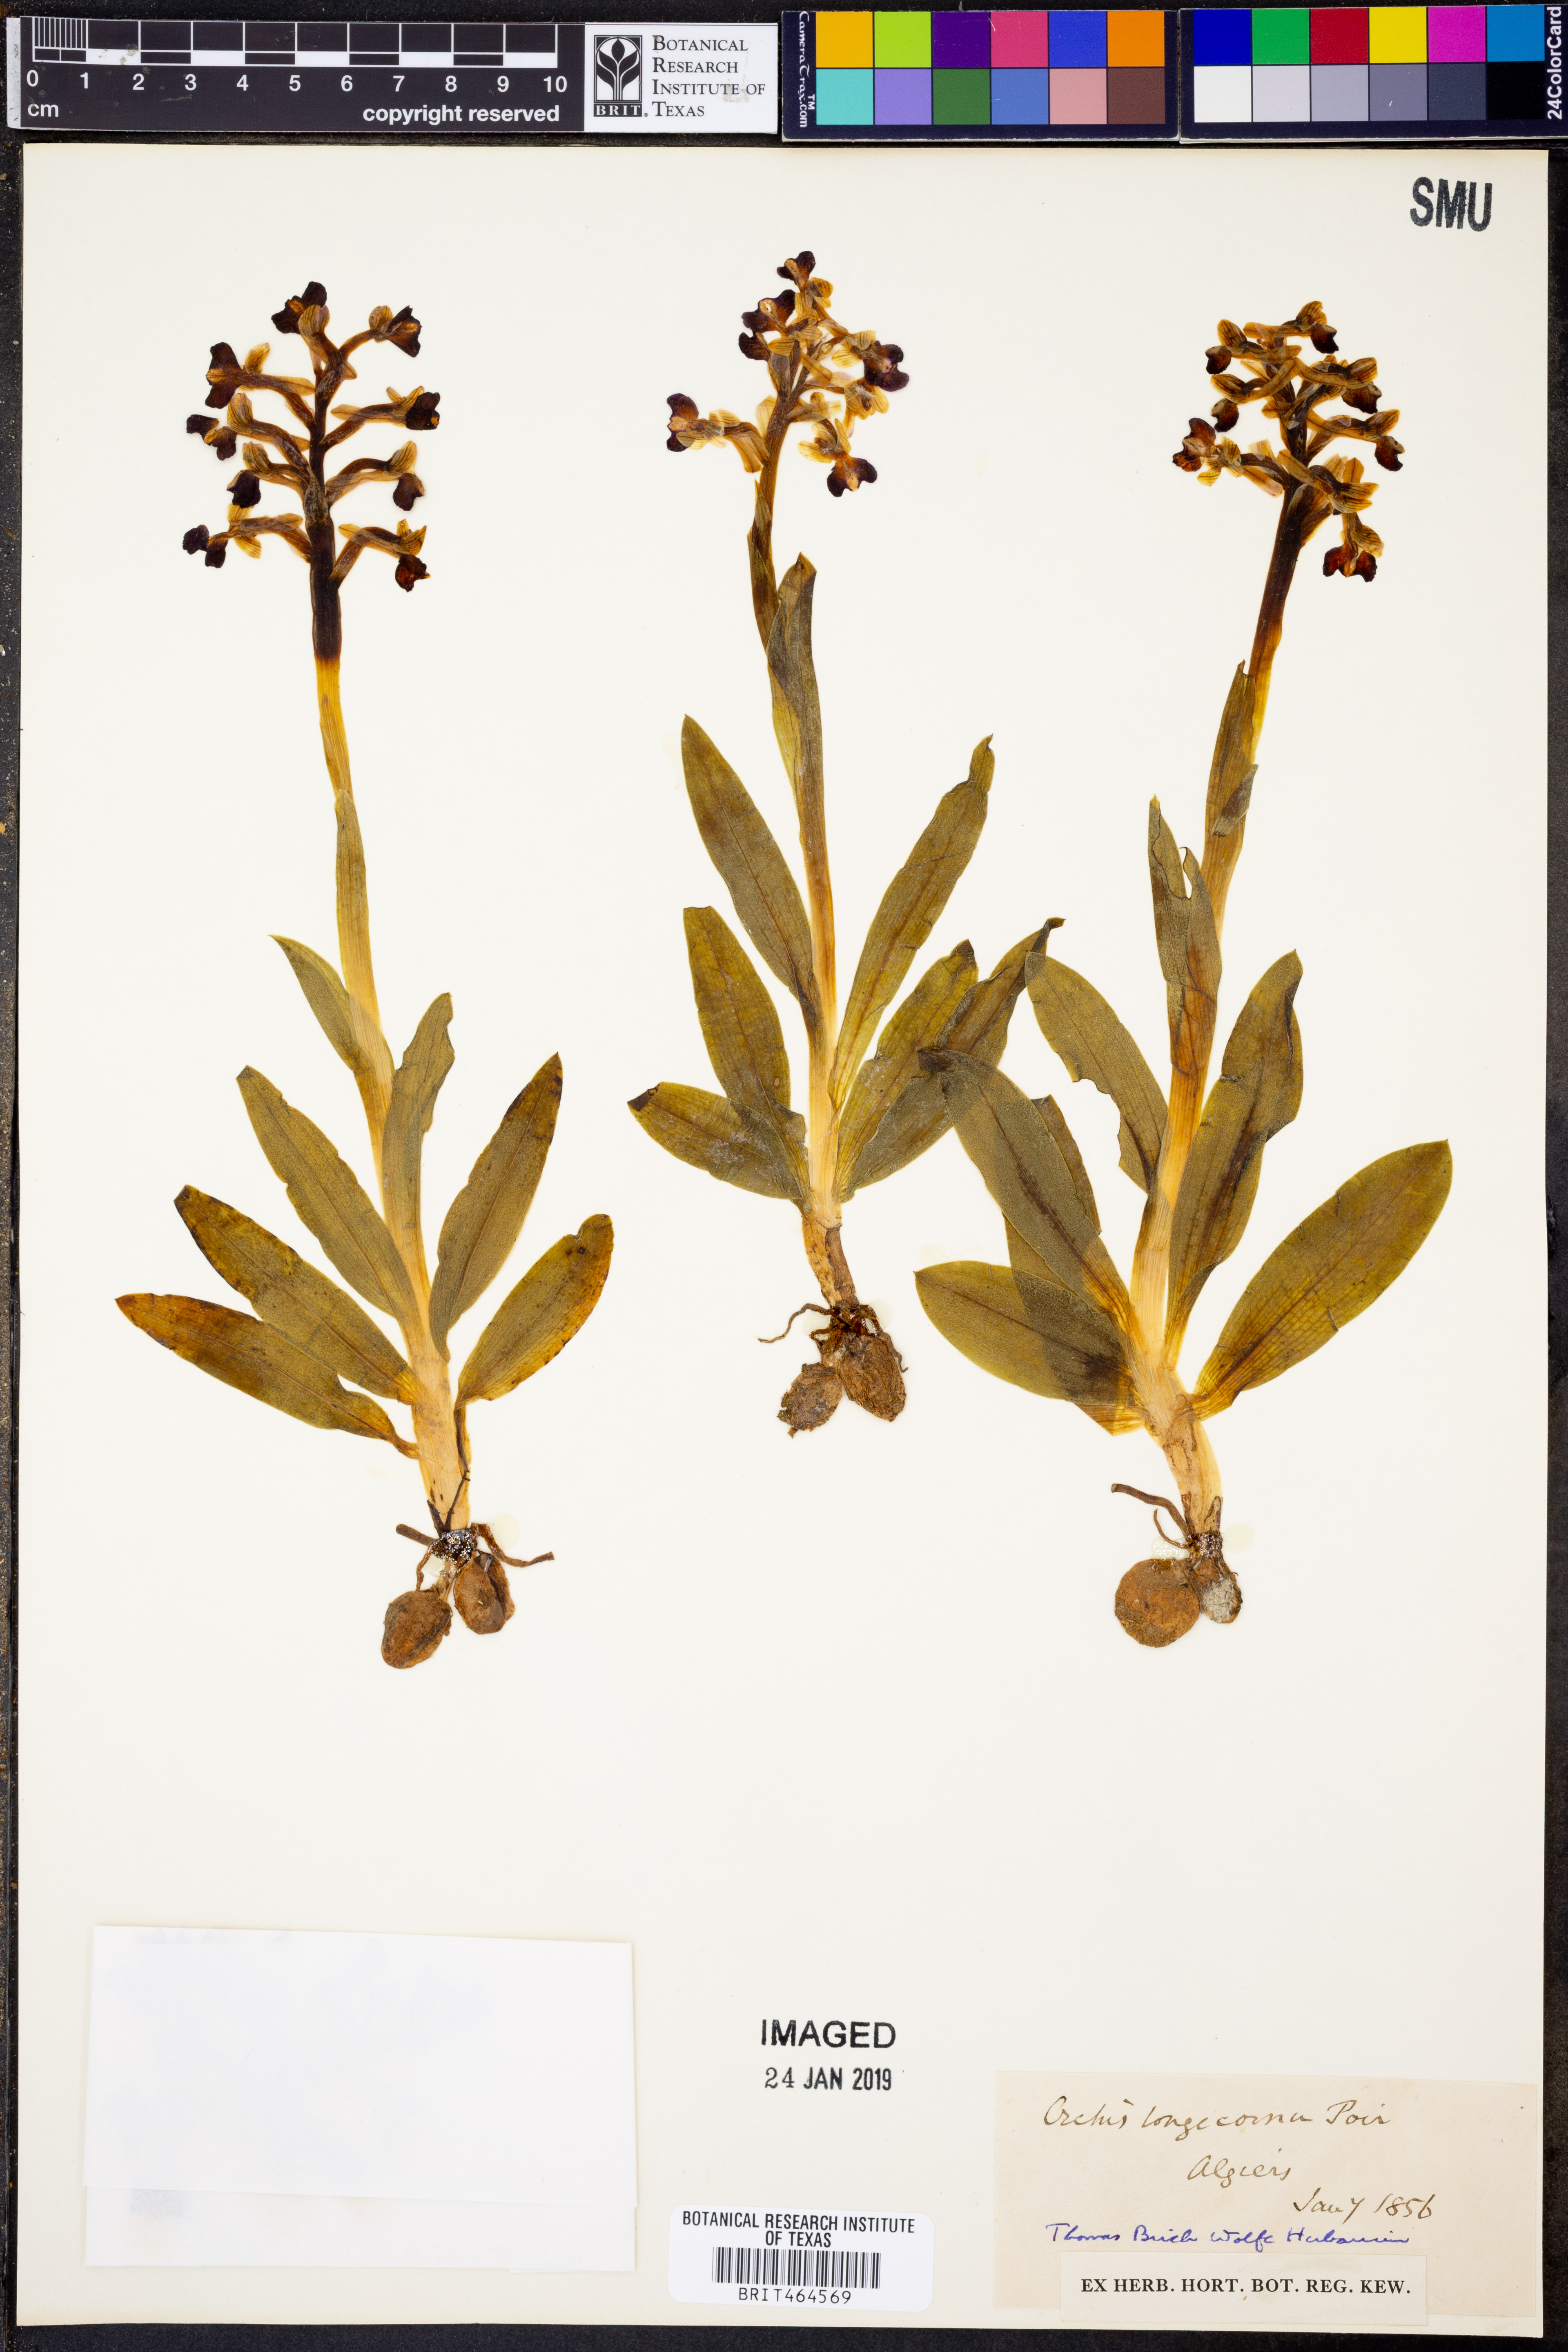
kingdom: Plantae
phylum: Tracheophyta
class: Liliopsida
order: Asparagales
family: Orchidaceae
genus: Anacamptis
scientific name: Anacamptis morio
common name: Green-winged orchid
